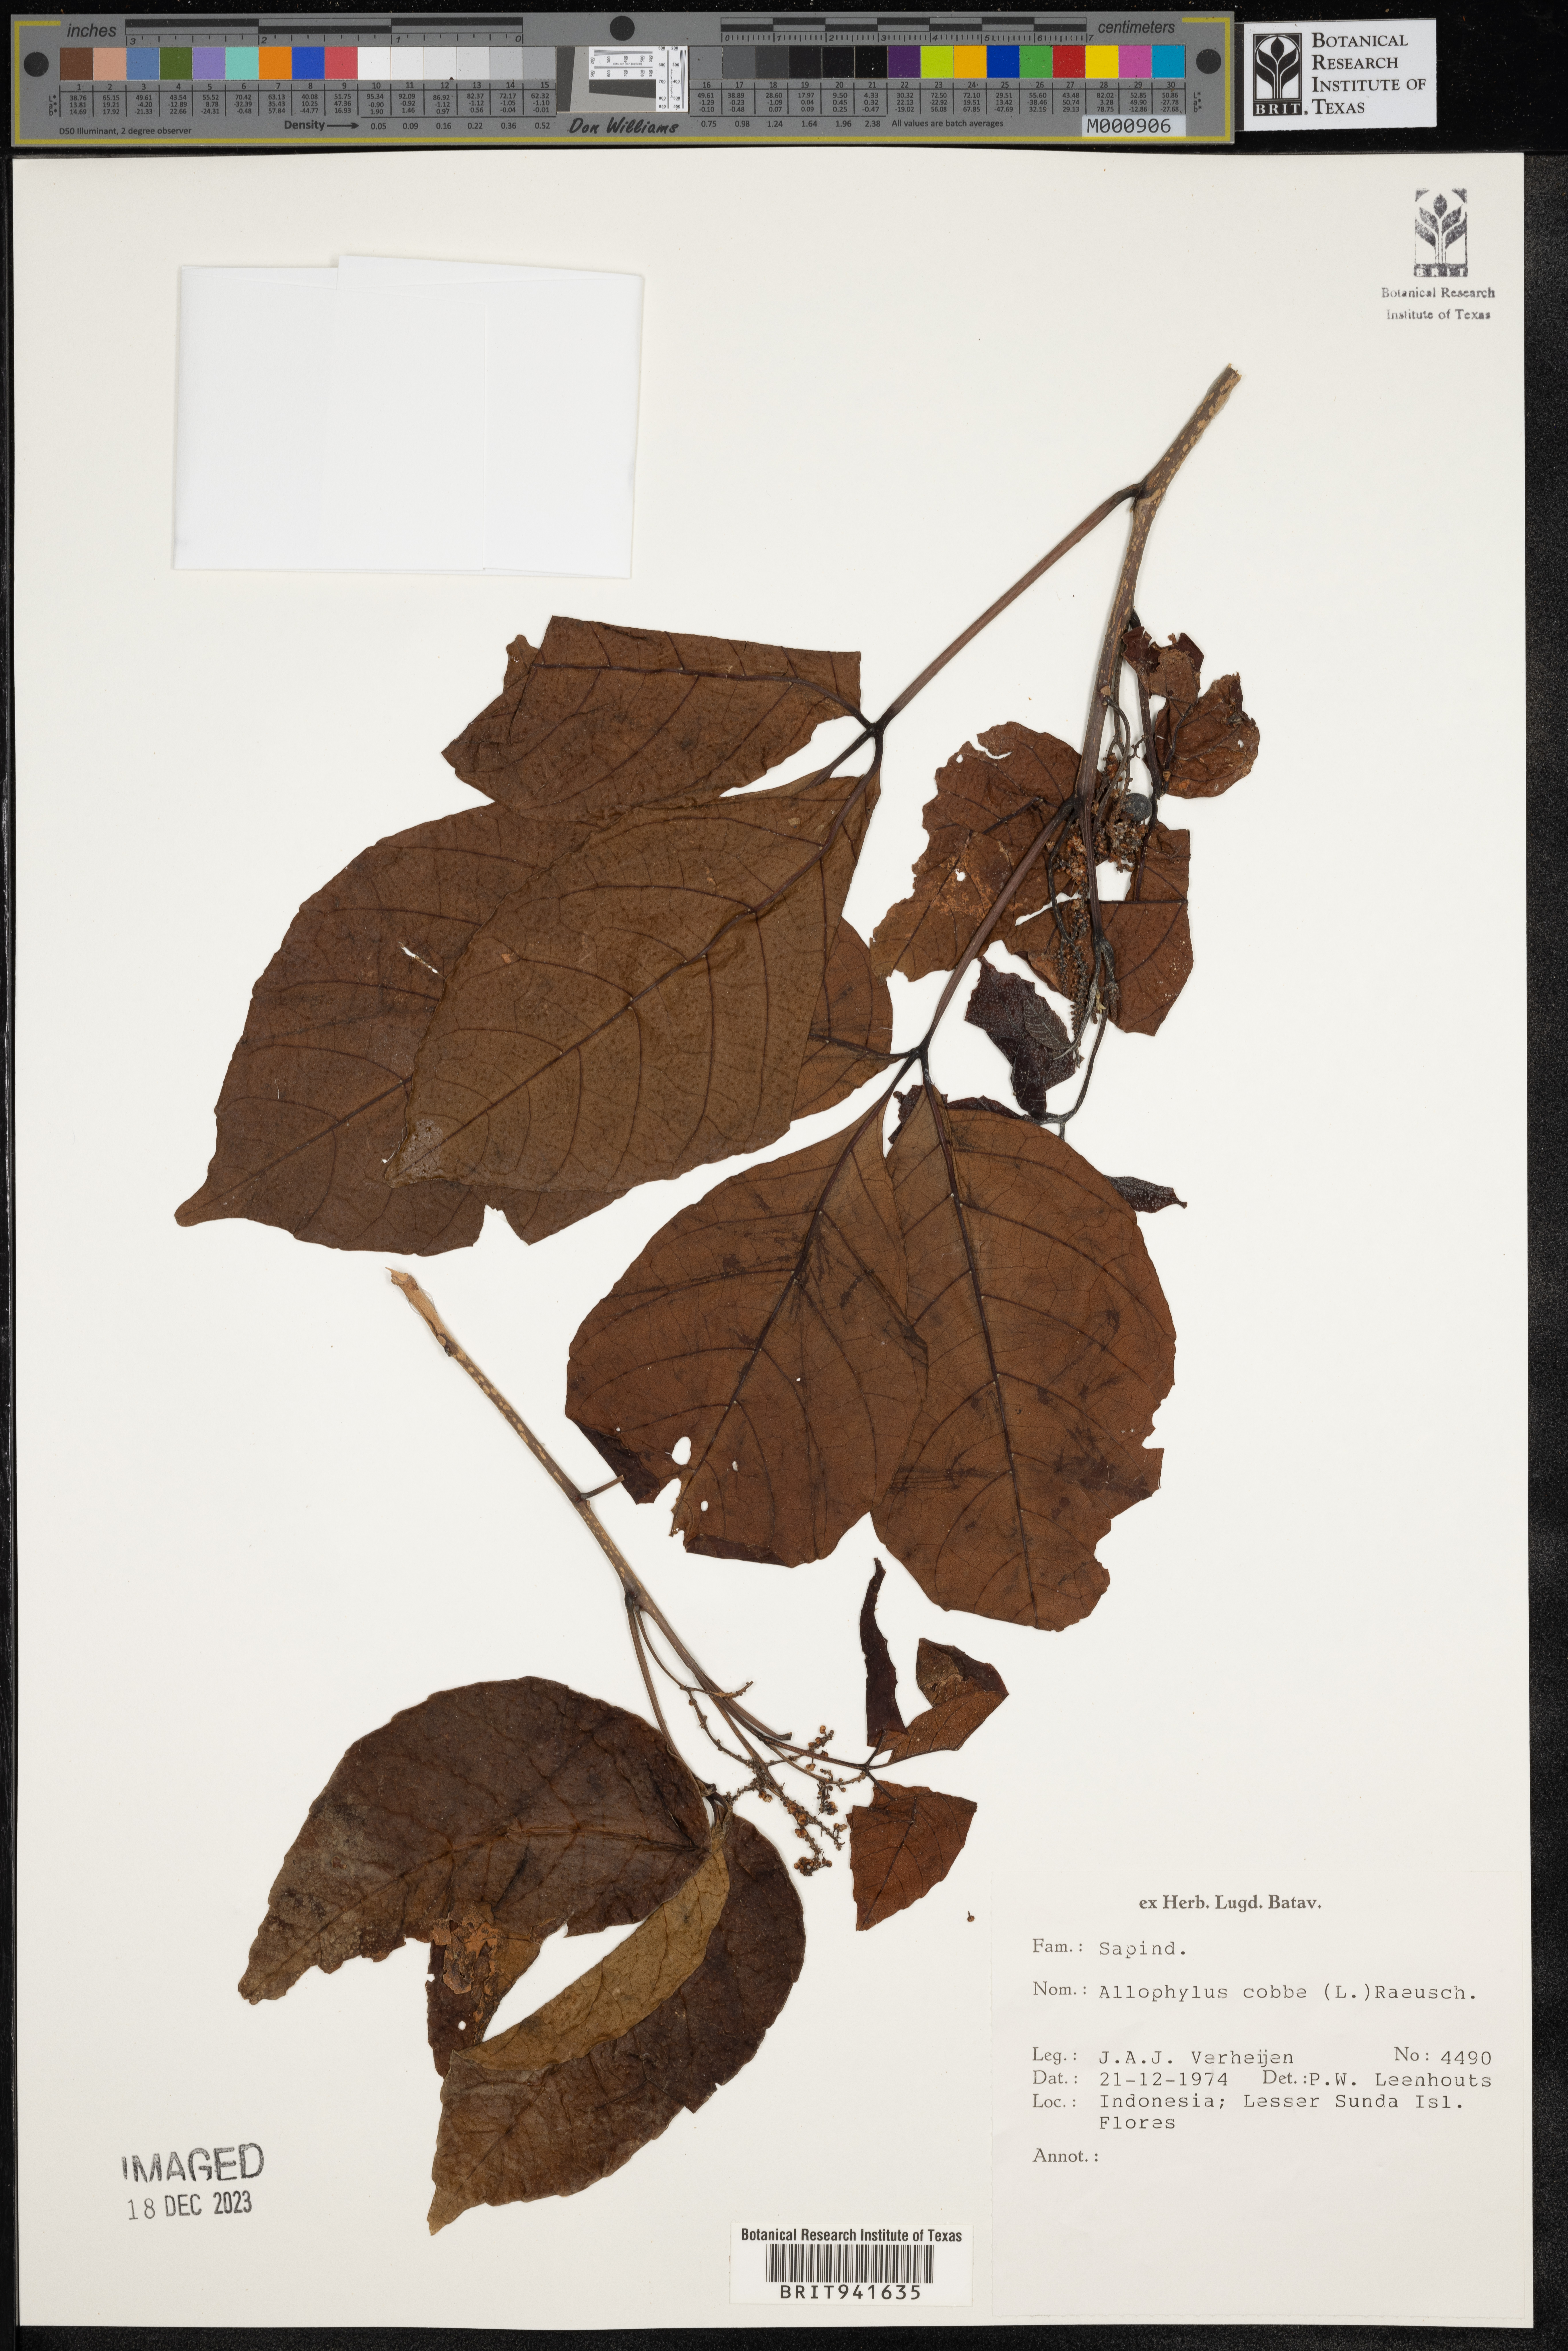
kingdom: Plantae
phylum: Tracheophyta
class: Magnoliopsida
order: Ericales
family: Polemoniaceae
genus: Allophyllum
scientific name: Allophyllum
